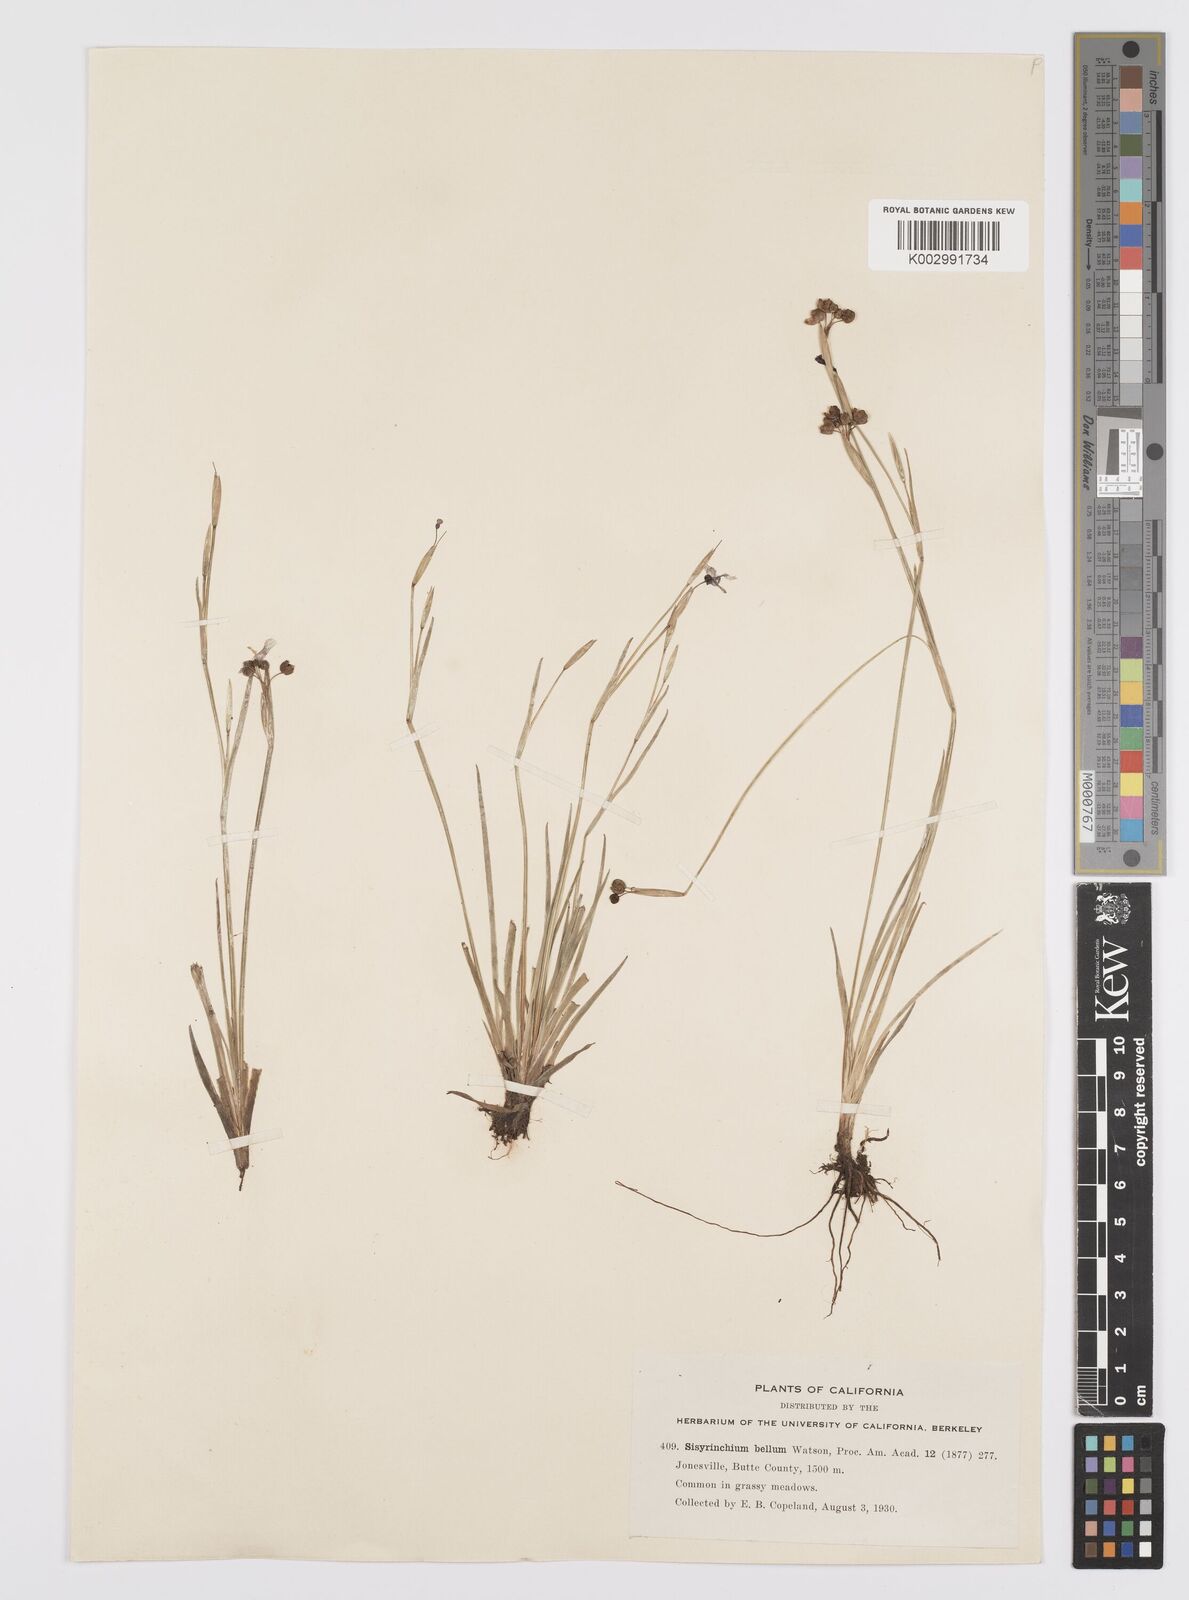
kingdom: Plantae
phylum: Tracheophyta
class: Liliopsida
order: Asparagales
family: Iridaceae
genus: Sisyrinchium
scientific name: Sisyrinchium bellum
